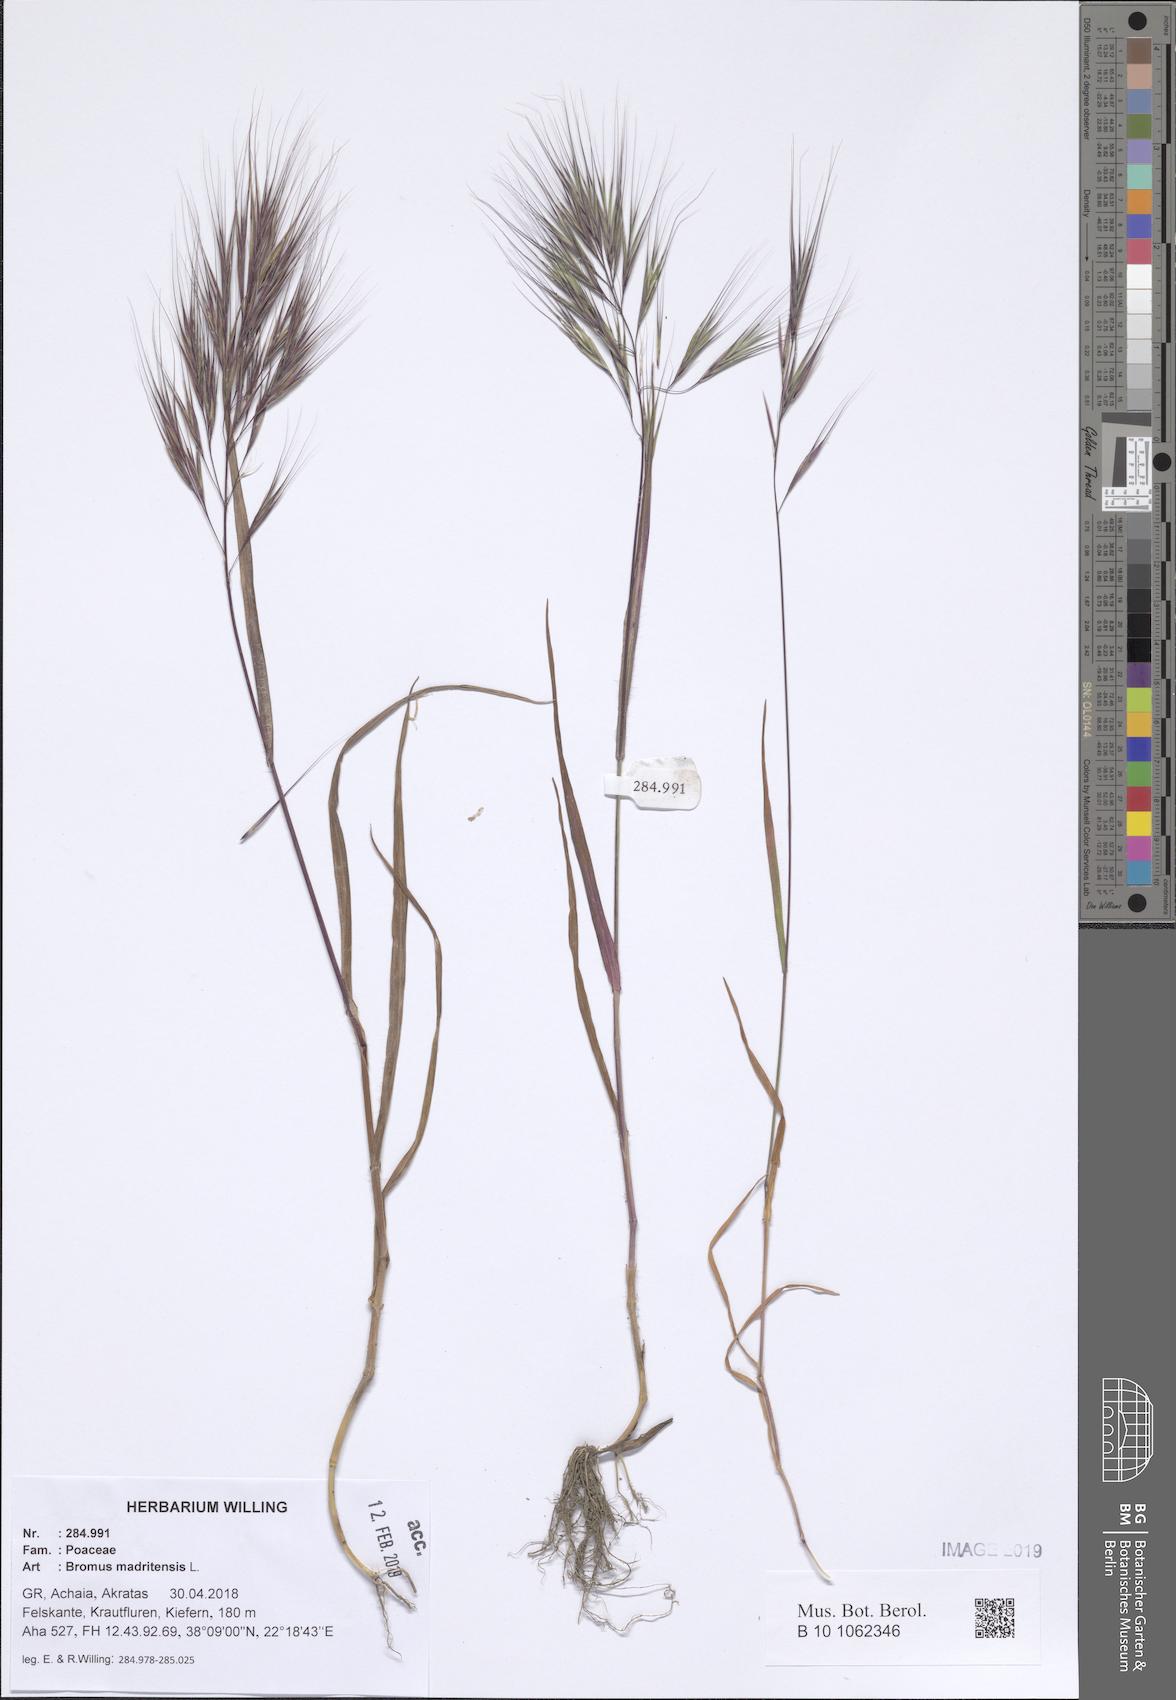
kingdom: Plantae
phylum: Tracheophyta
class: Liliopsida
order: Poales
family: Poaceae
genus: Bromus
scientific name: Bromus madritensis
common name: Compact brome
